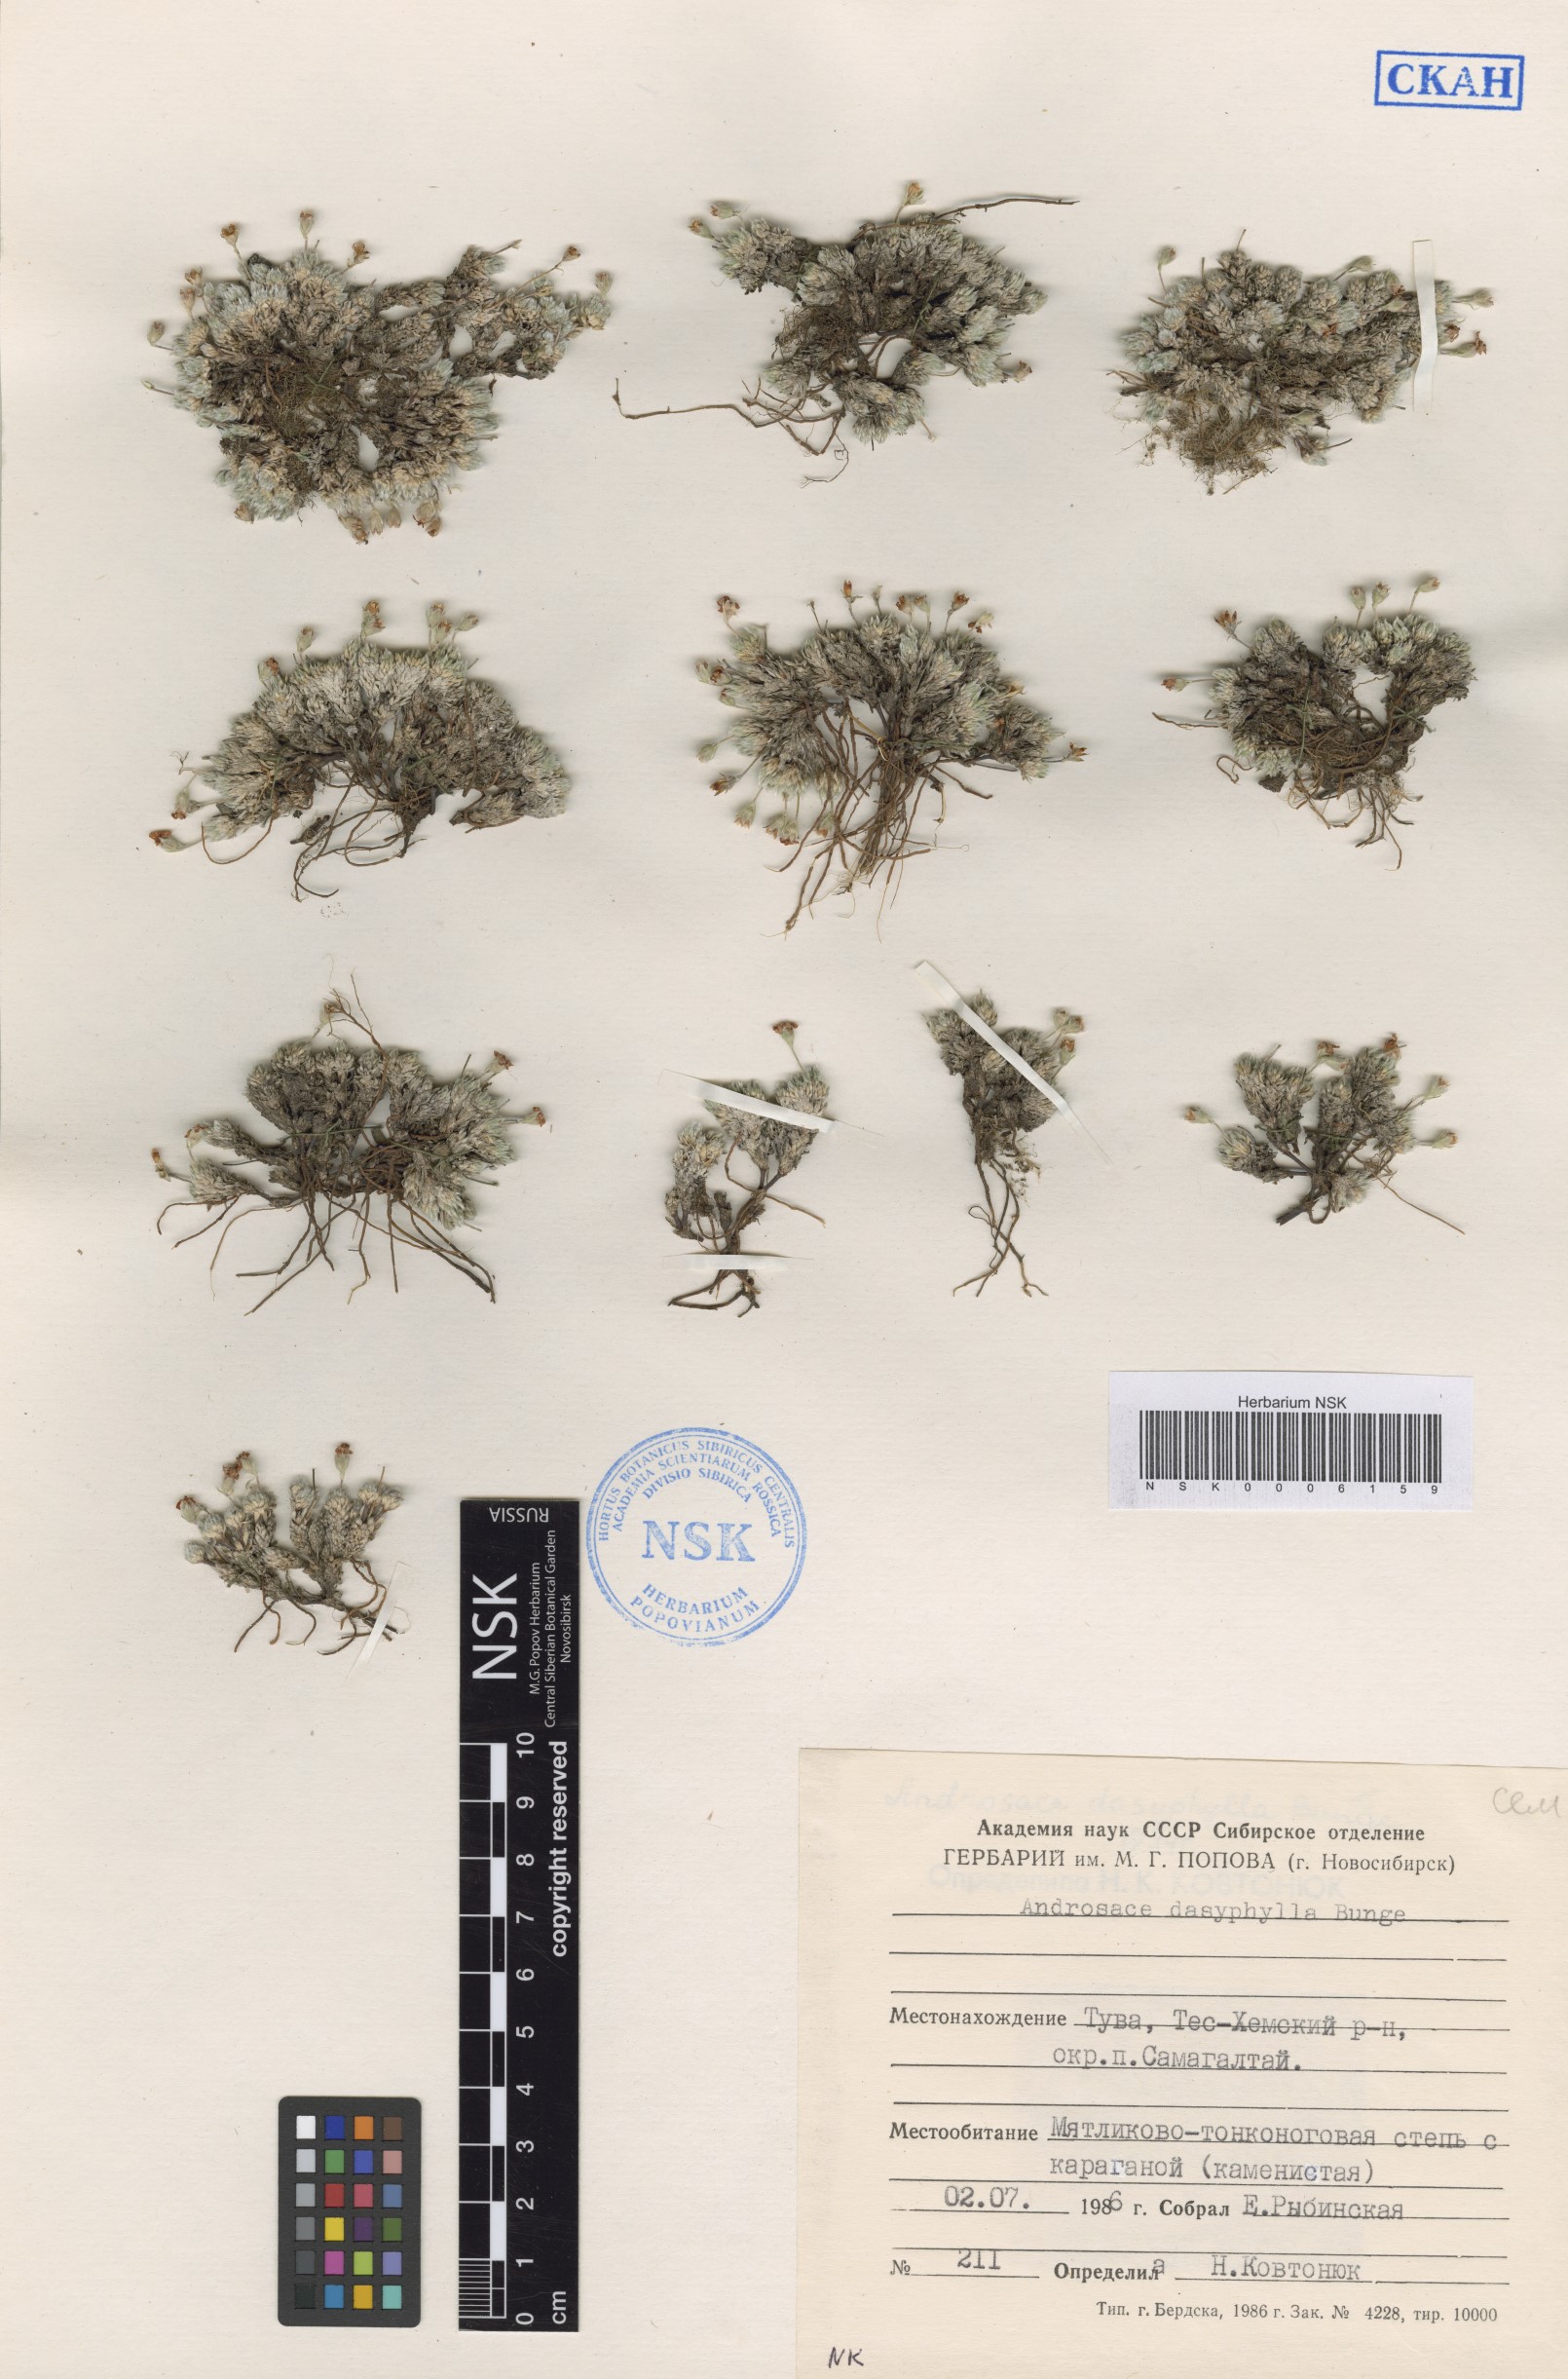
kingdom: Plantae
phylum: Tracheophyta
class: Magnoliopsida
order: Ericales
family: Primulaceae
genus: Androsace
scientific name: Androsace dasyphylla
